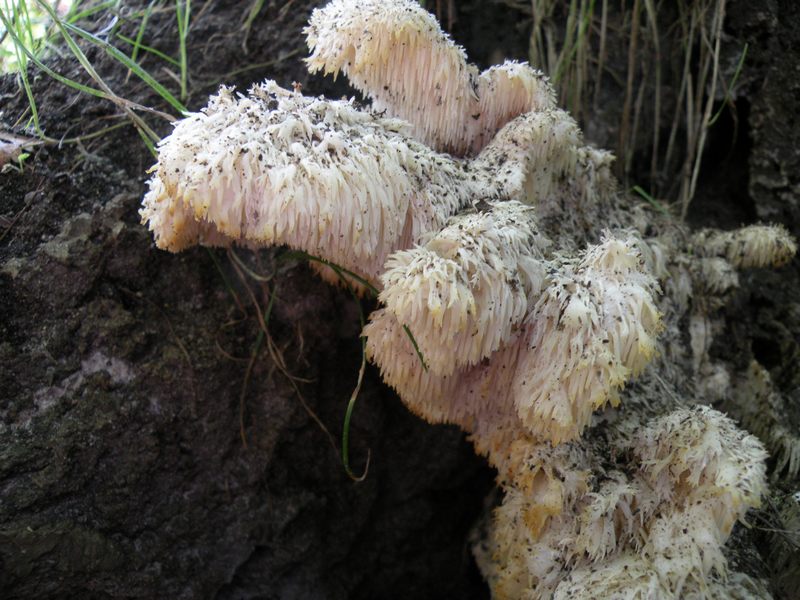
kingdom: Fungi
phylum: Basidiomycota
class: Agaricomycetes
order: Russulales
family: Hericiaceae
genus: Hericium
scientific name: Hericium cirrhatum
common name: børstepigsvamp
